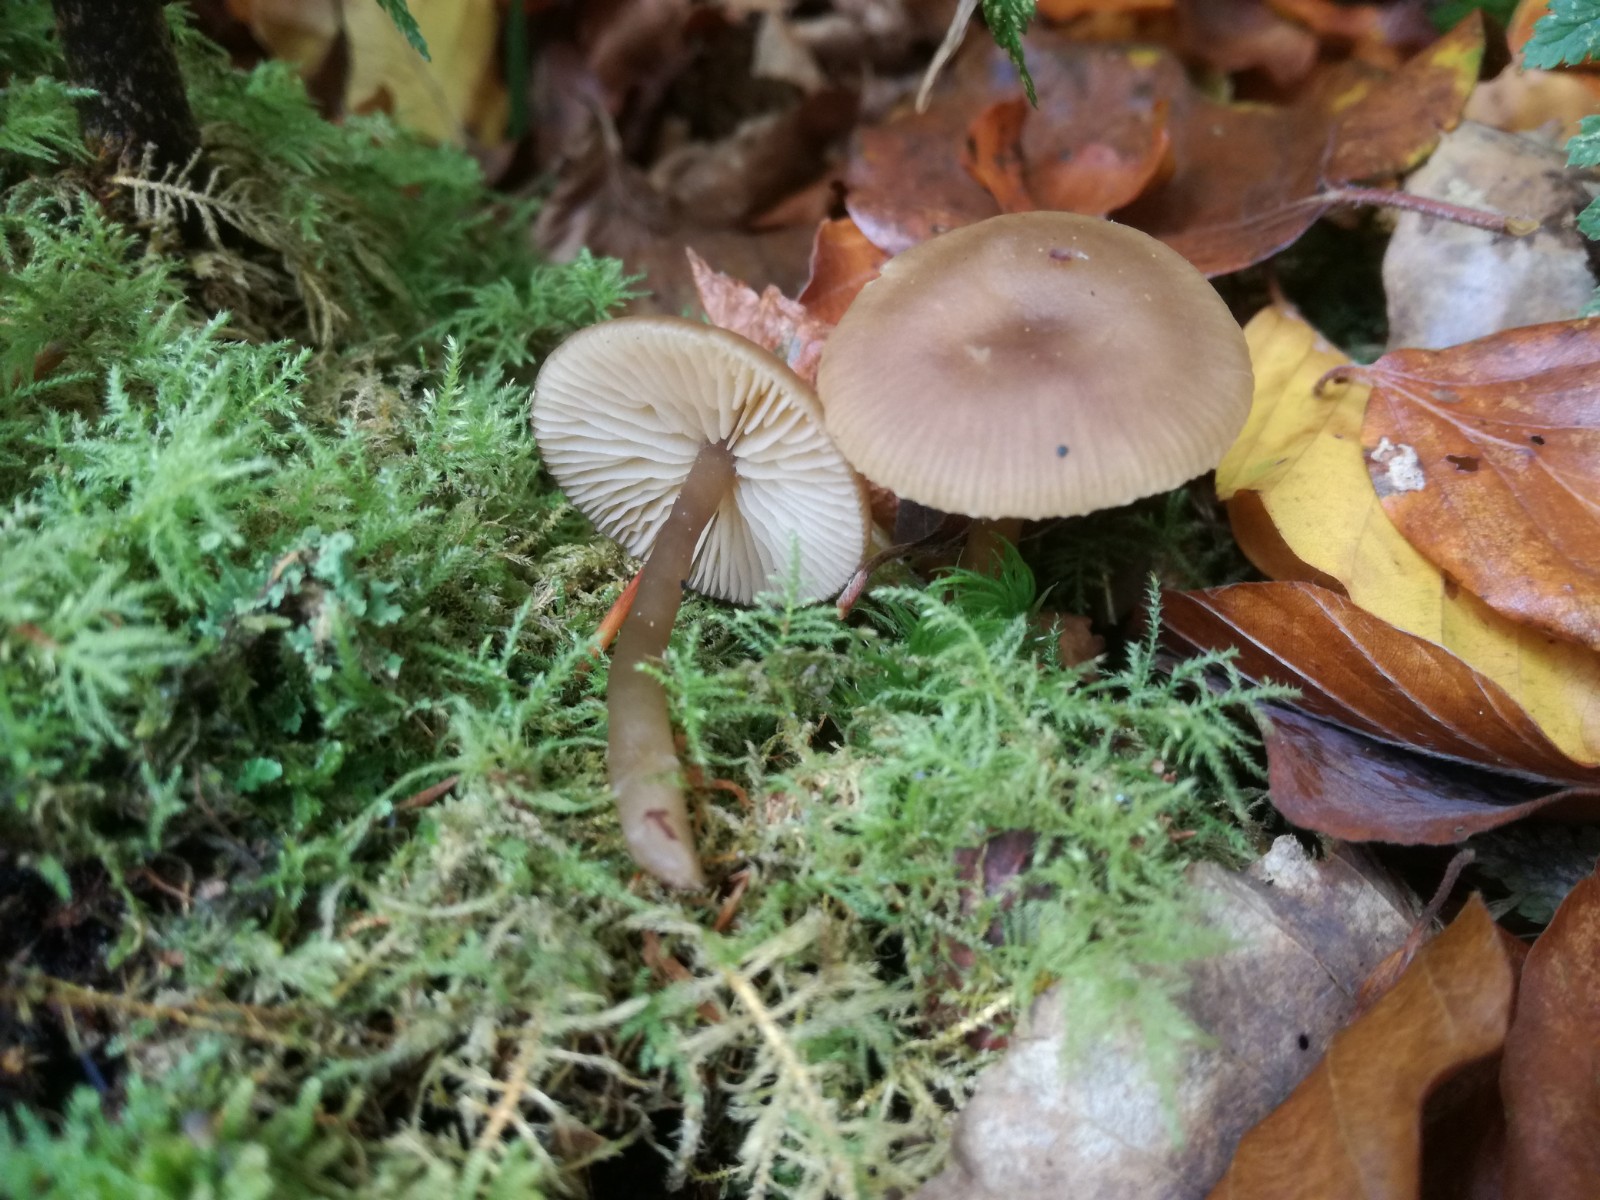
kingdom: Fungi
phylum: Basidiomycota
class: Agaricomycetes
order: Agaricales
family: Tricholomataceae
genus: Clitocybe
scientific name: Clitocybe foetens
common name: olivengrå tragthat
